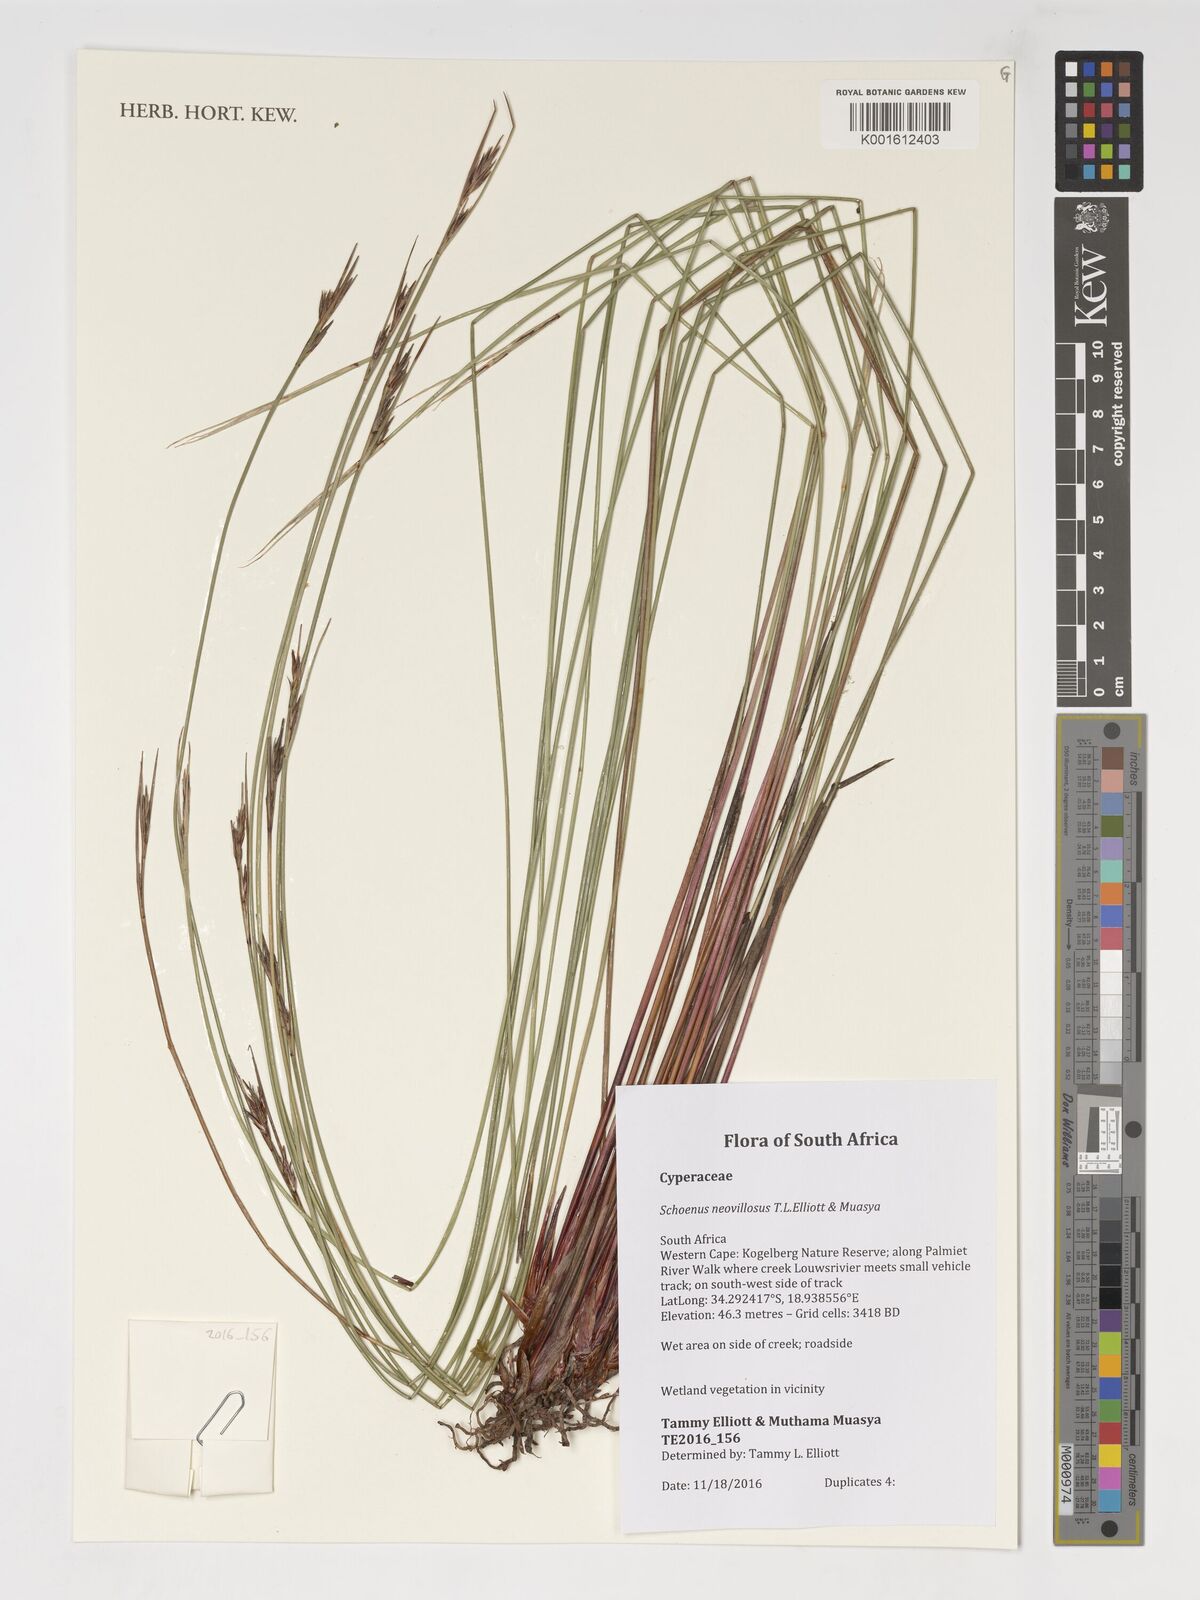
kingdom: Plantae
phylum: Tracheophyta
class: Liliopsida
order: Poales
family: Cyperaceae
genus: Schoenus
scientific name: Schoenus neovillosus
